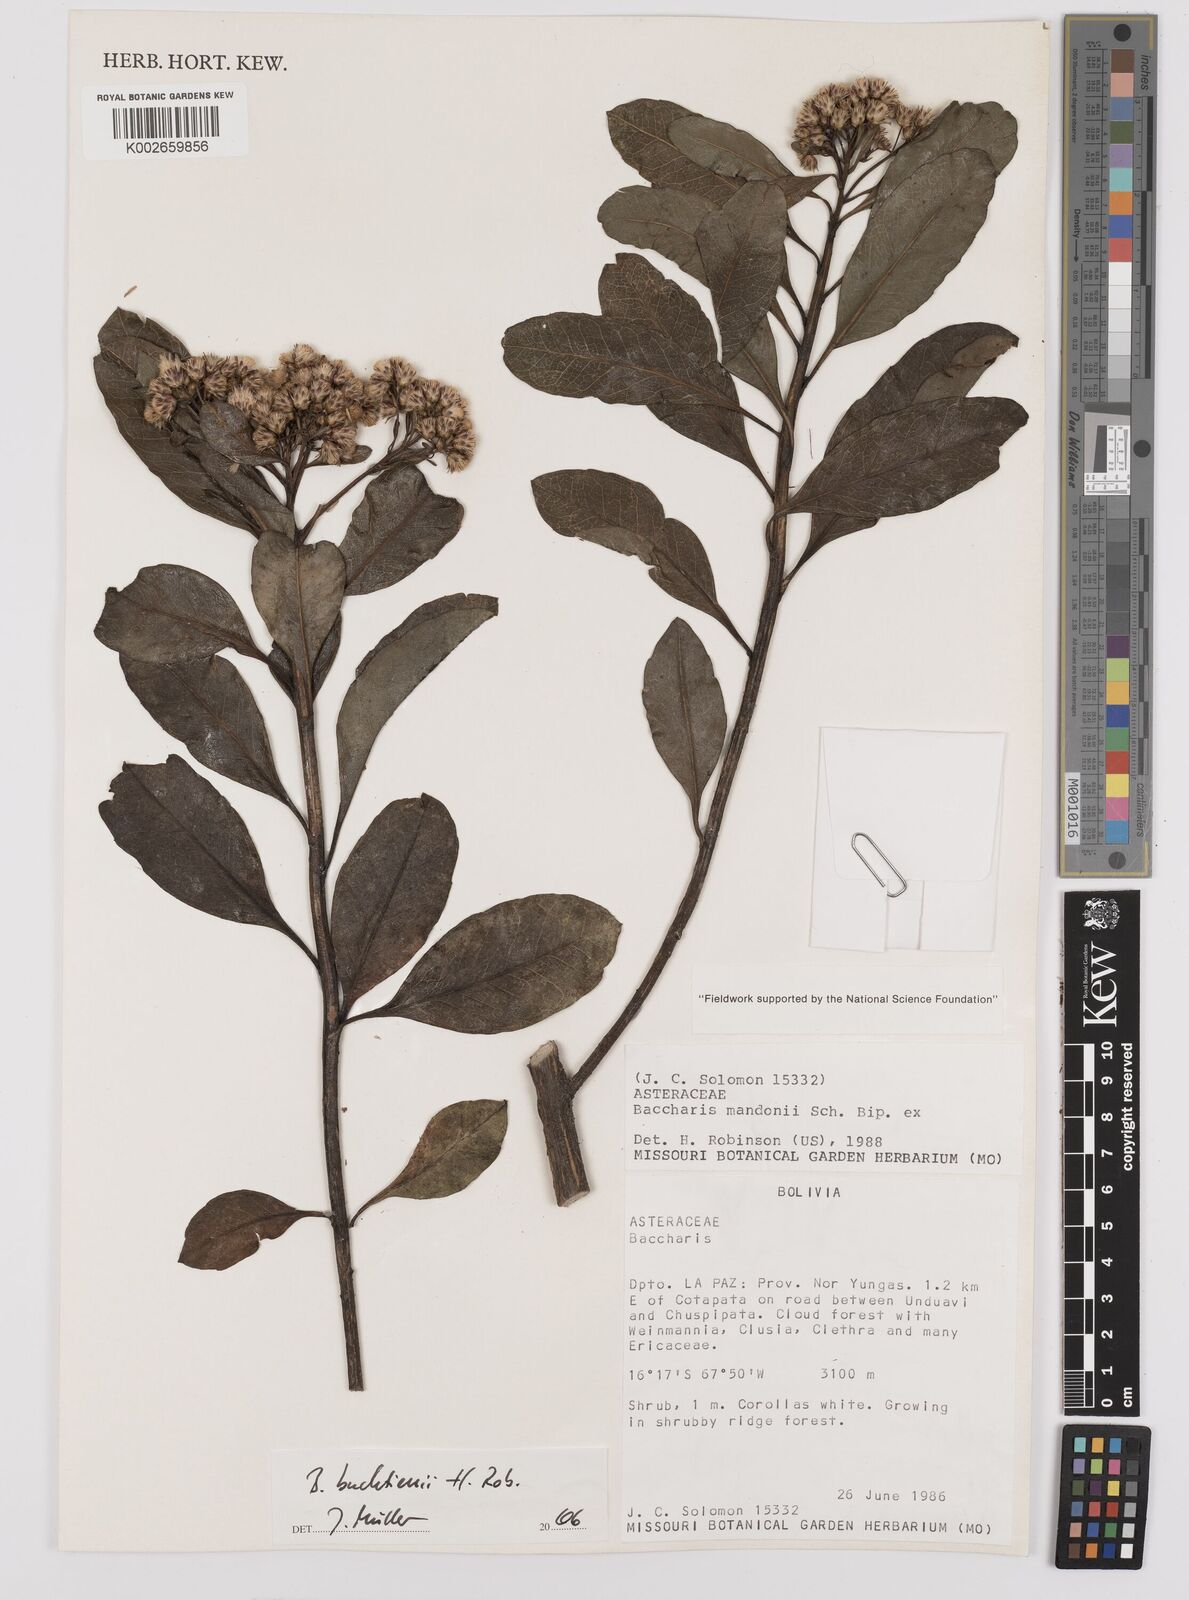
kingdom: Plantae
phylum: Tracheophyta
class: Magnoliopsida
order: Asterales
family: Asteraceae
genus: Baccharis
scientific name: Baccharis buchtienii
